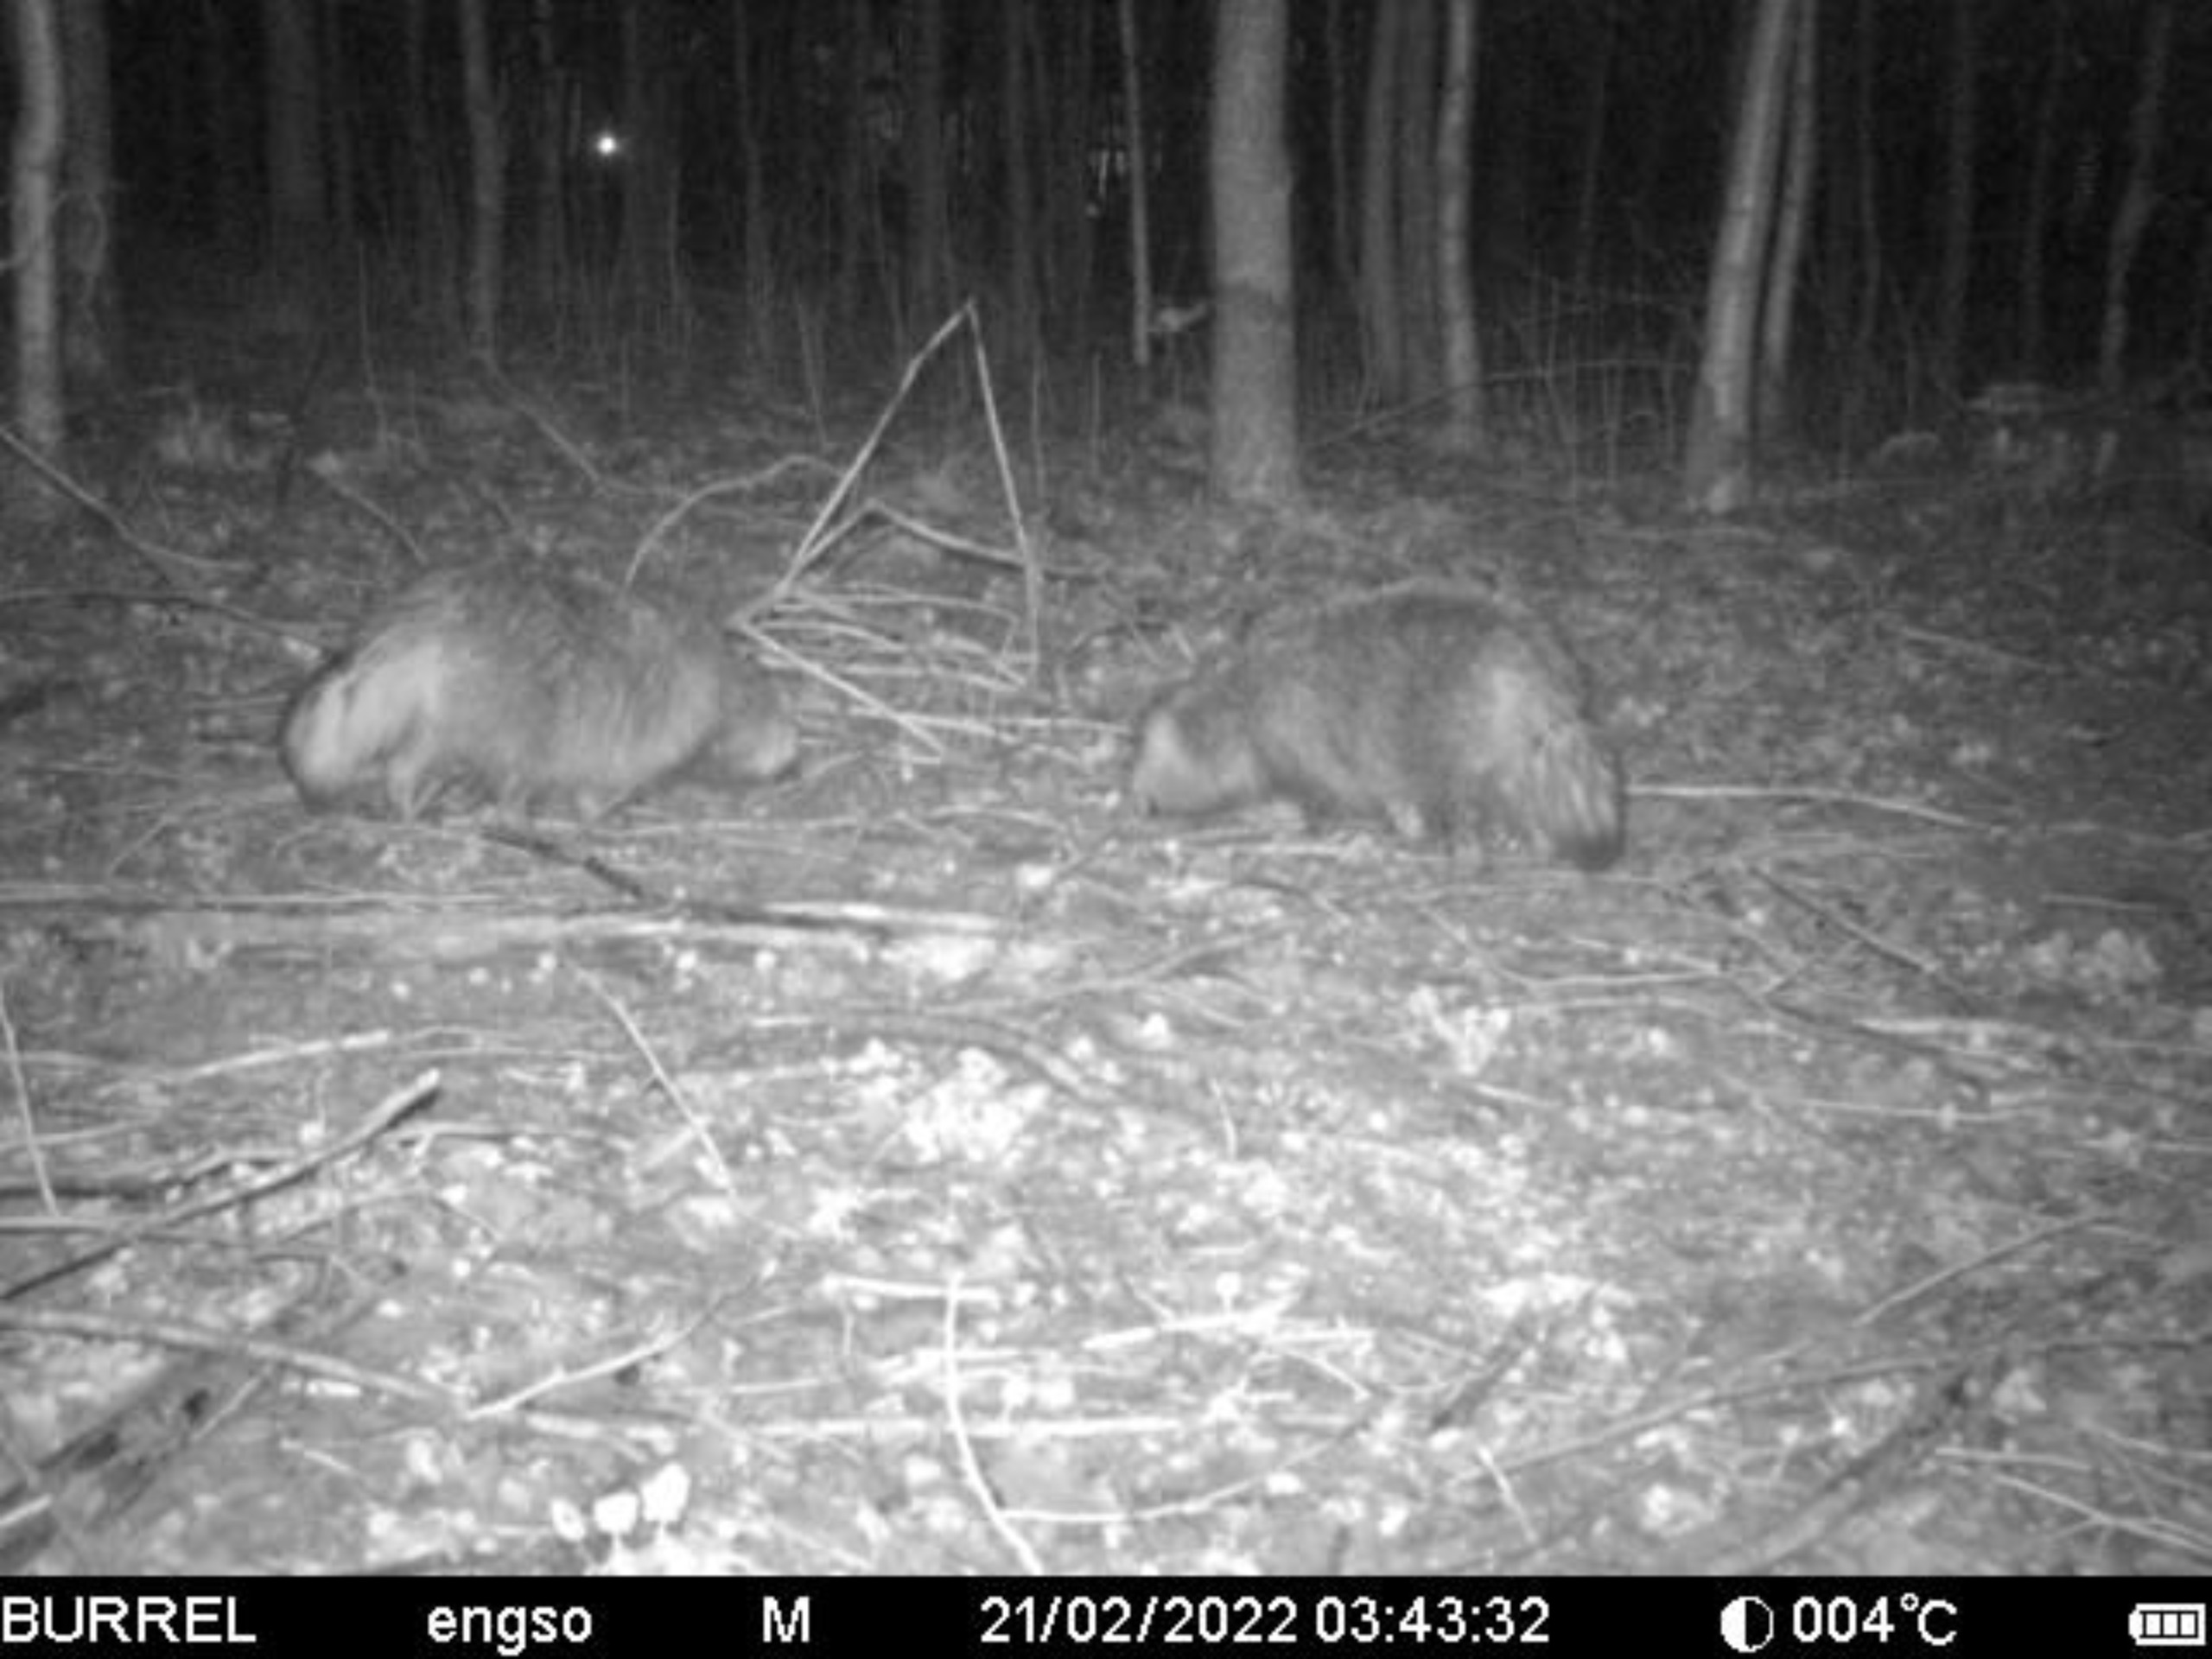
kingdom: Animalia
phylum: Chordata
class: Mammalia
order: Carnivora
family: Canidae
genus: Nyctereutes
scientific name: Nyctereutes procyonoides
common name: Mårhund
